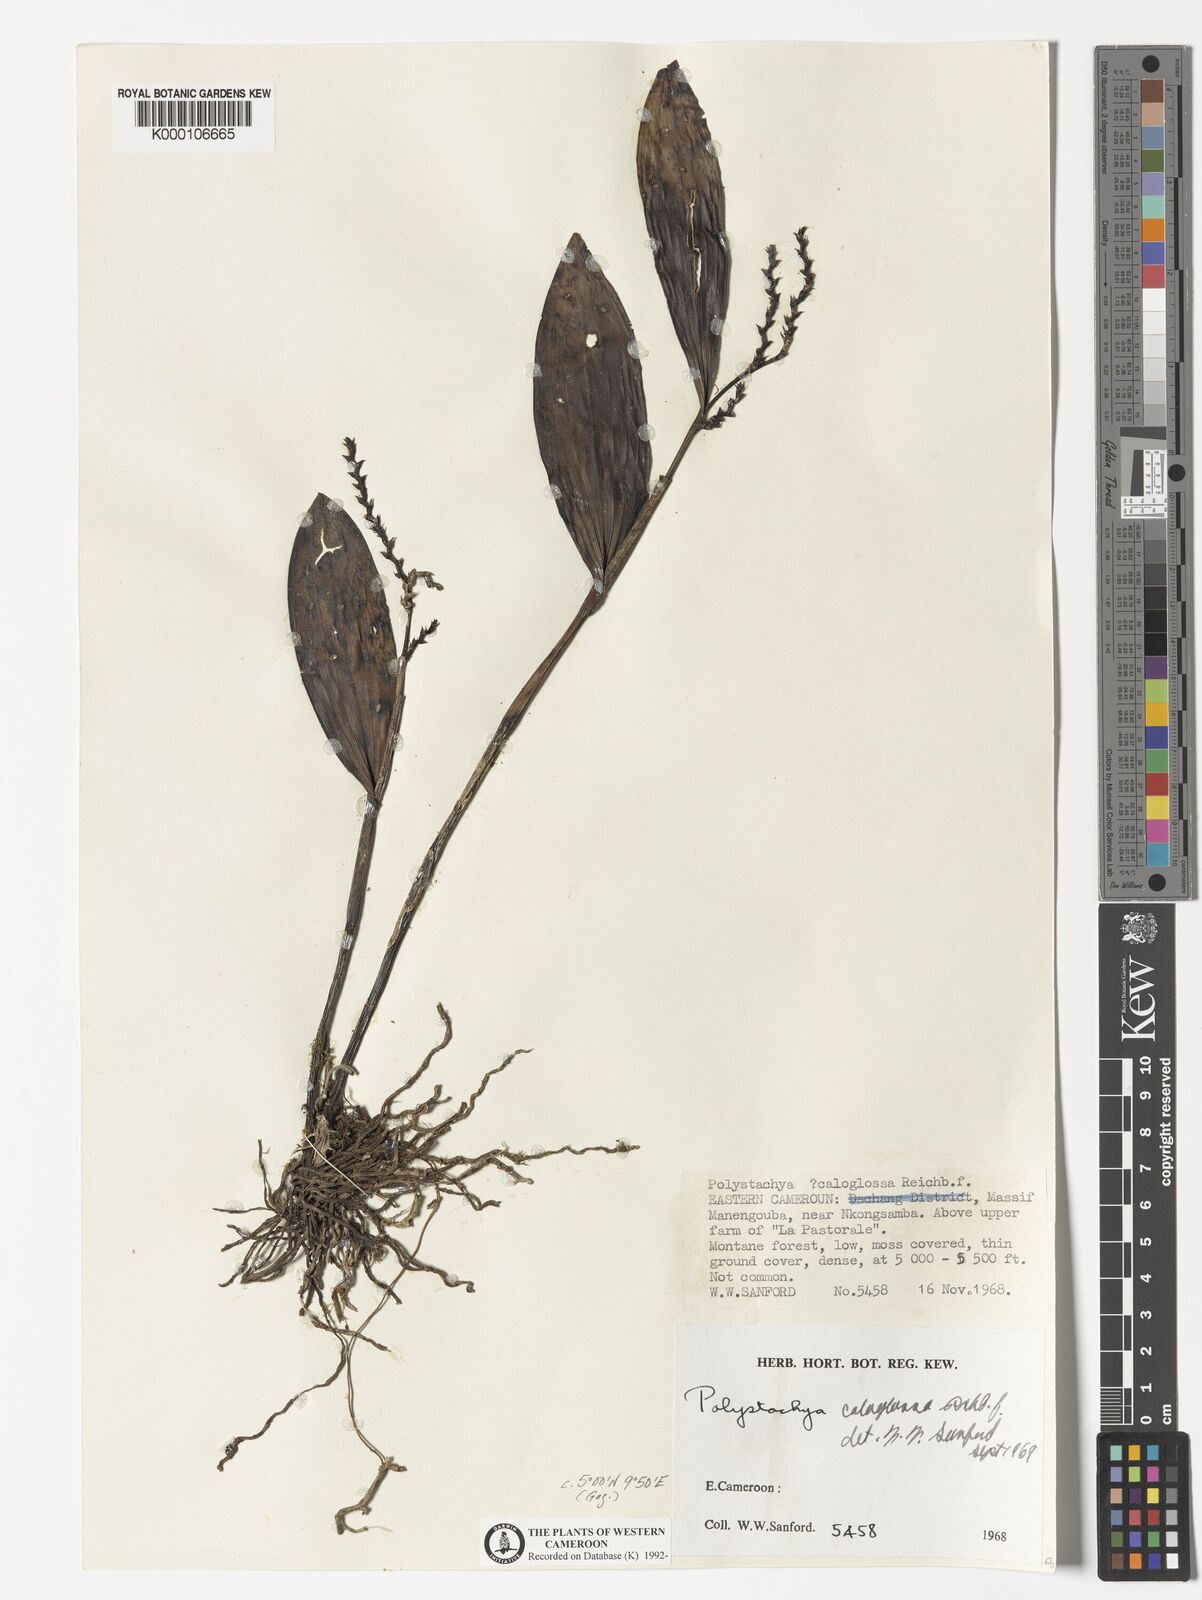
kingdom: Plantae
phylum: Tracheophyta
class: Liliopsida
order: Asparagales
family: Orchidaceae
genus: Polystachya
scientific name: Polystachya caloglossa
